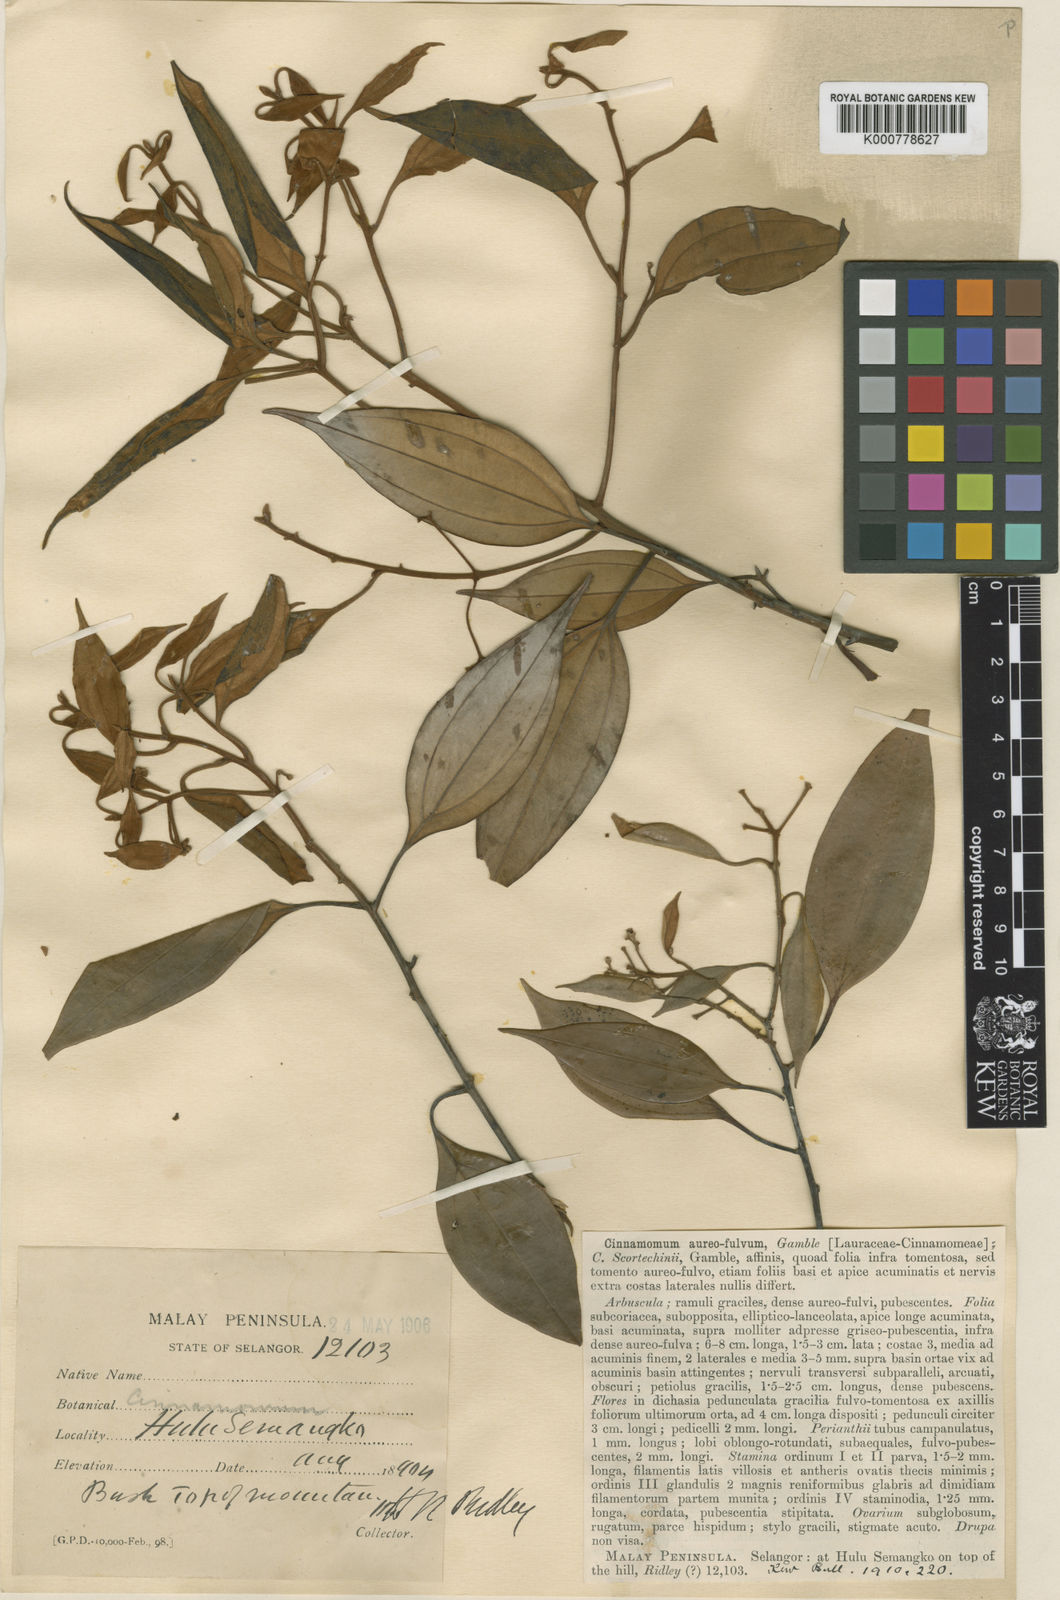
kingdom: Plantae
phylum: Tracheophyta
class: Magnoliopsida
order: Laurales
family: Lauraceae
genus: Cinnamomum
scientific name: Cinnamomum aureofulvum
